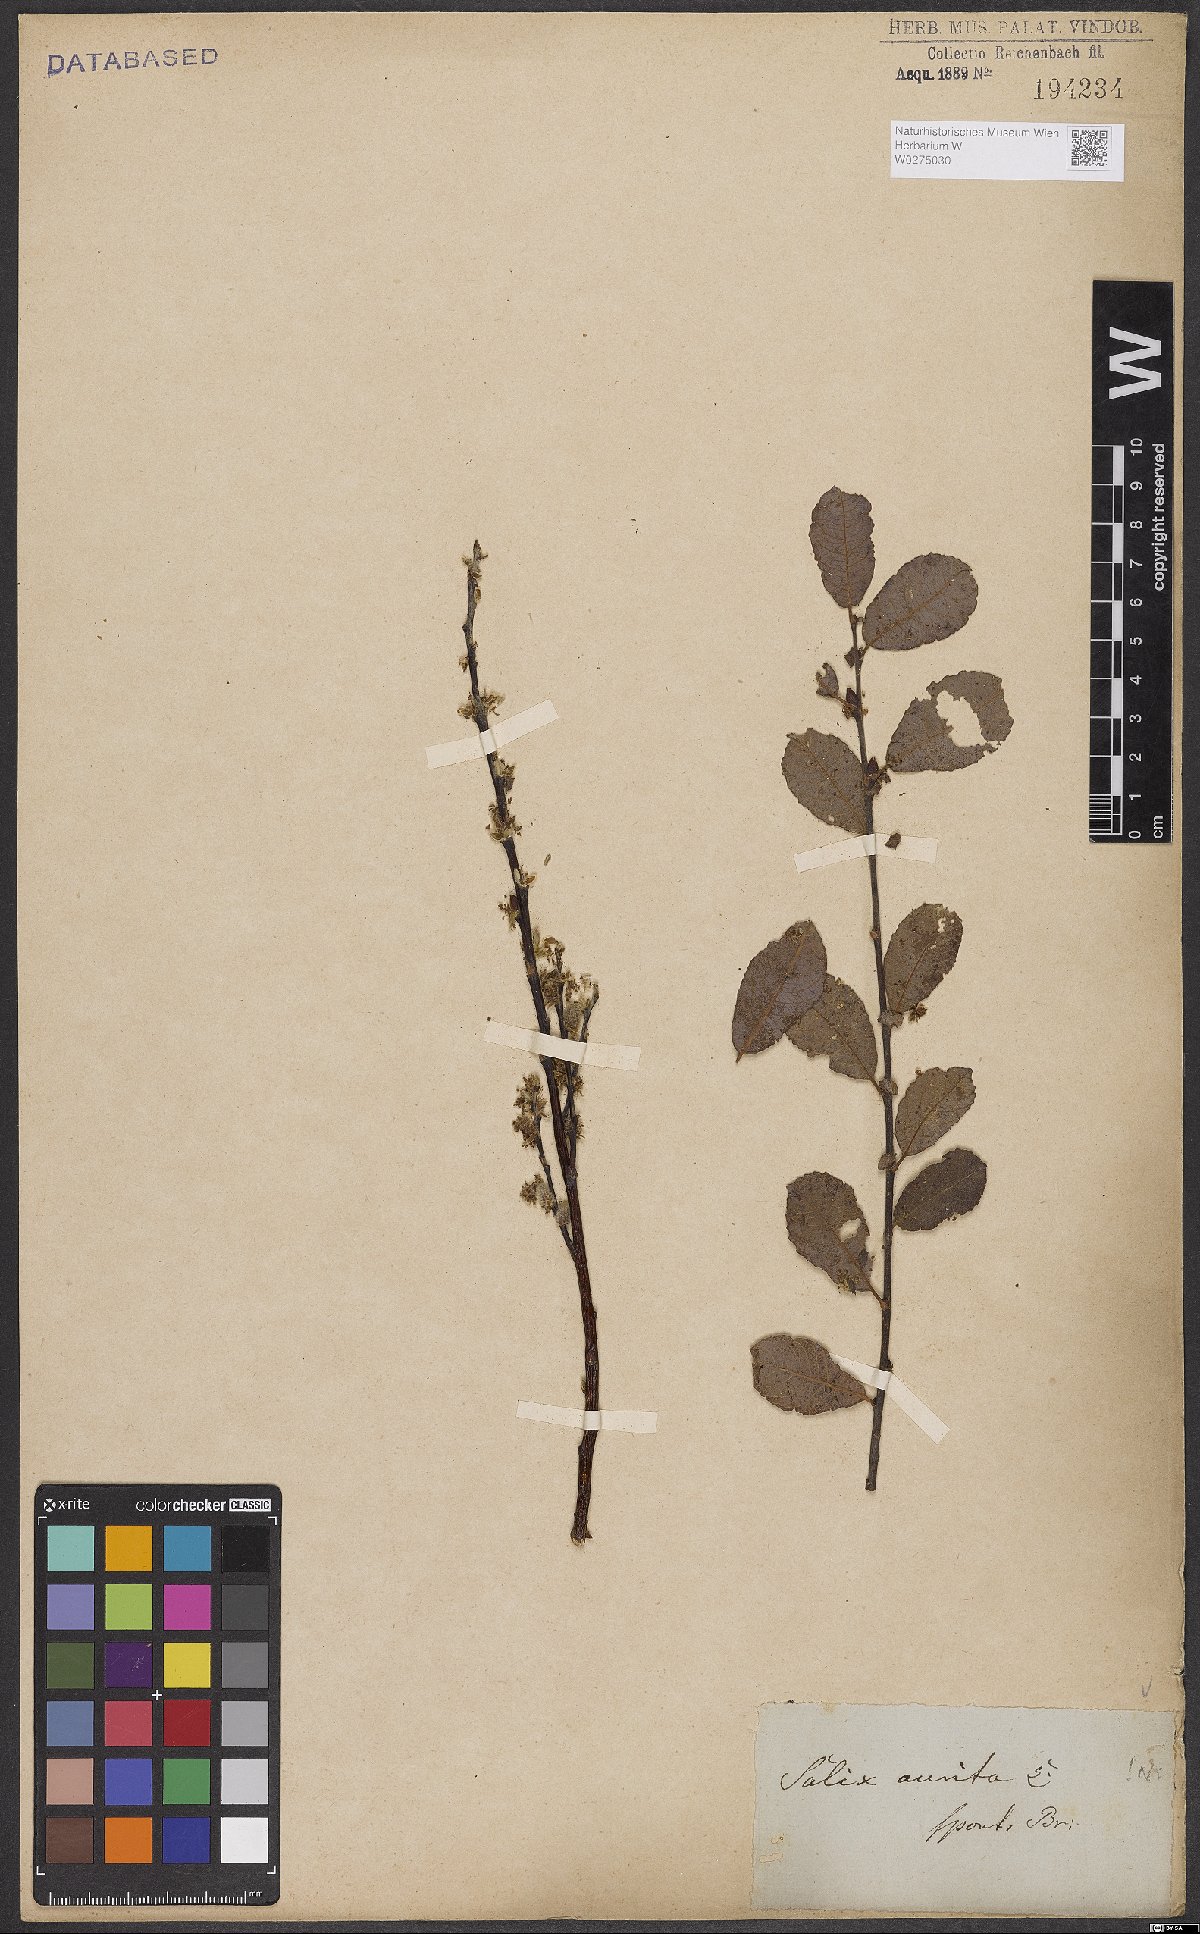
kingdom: Plantae
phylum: Tracheophyta
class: Magnoliopsida
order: Malpighiales
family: Salicaceae
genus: Salix
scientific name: Salix aurita
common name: Eared willow
